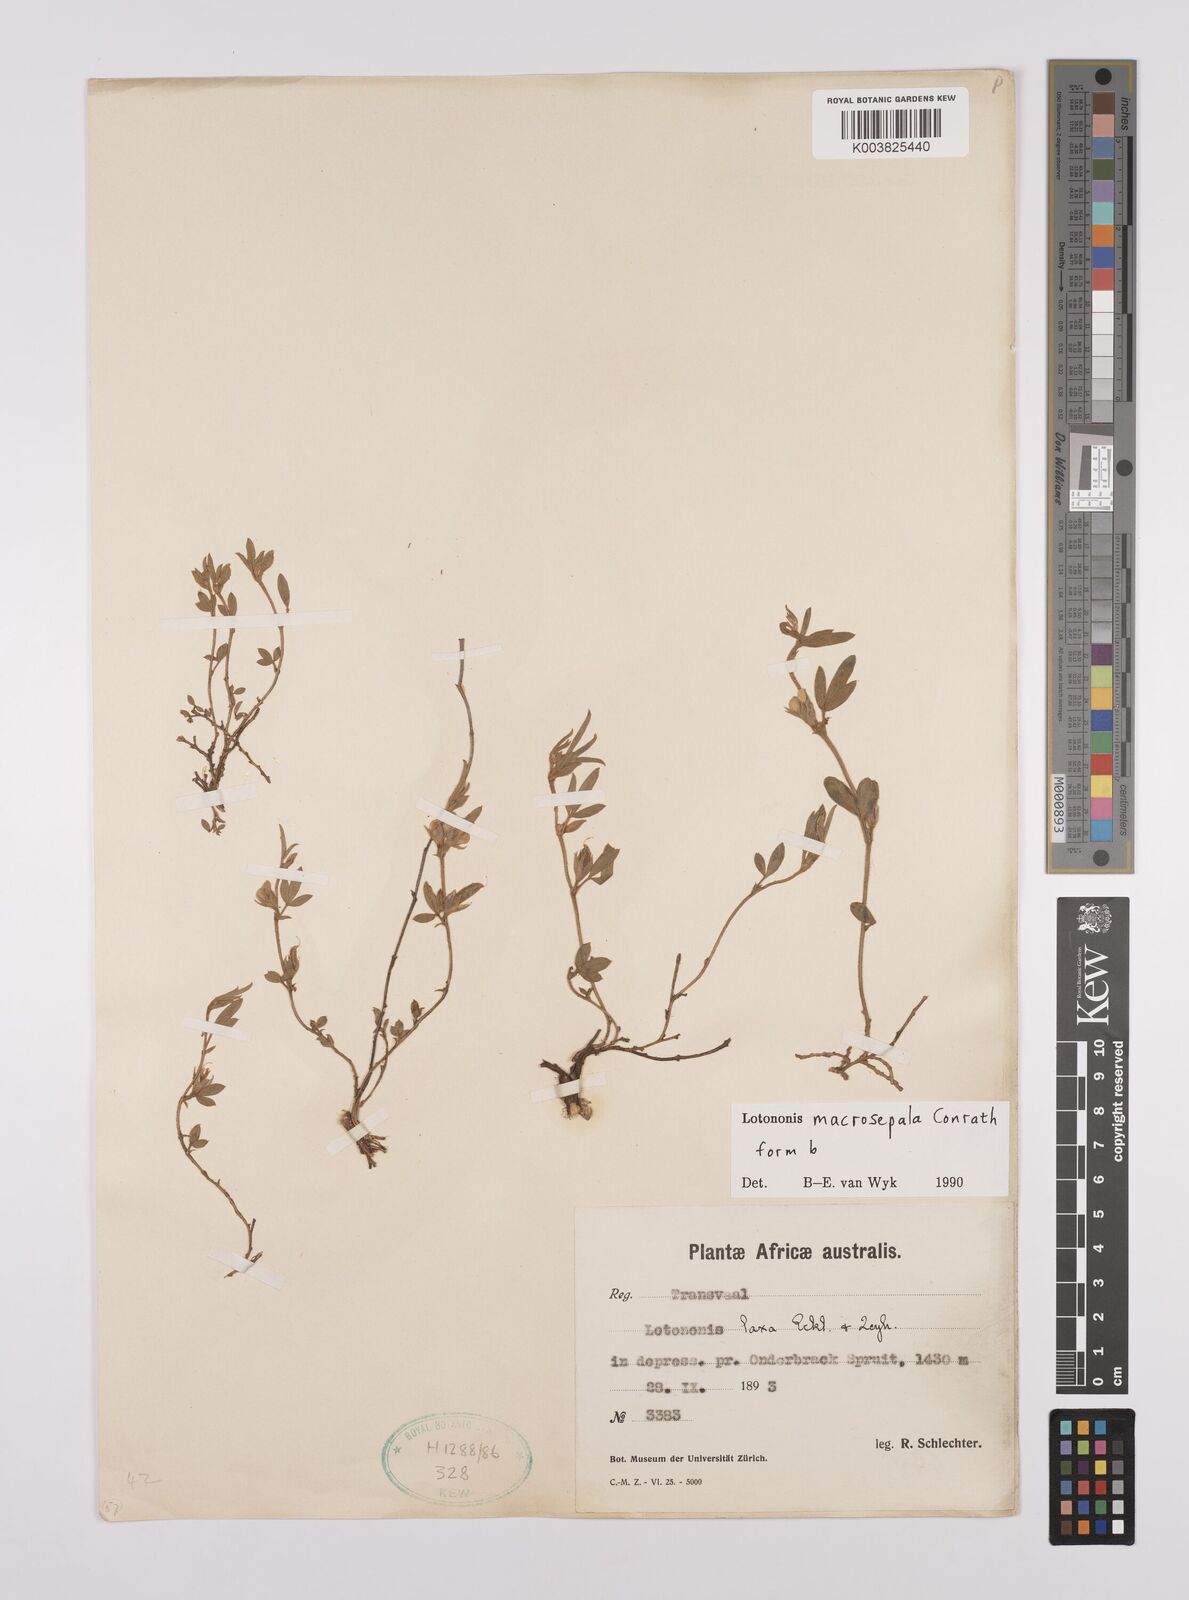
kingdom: Plantae
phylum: Tracheophyta
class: Magnoliopsida
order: Fabales
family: Fabaceae
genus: Lotononis
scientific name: Lotononis macrosepala
